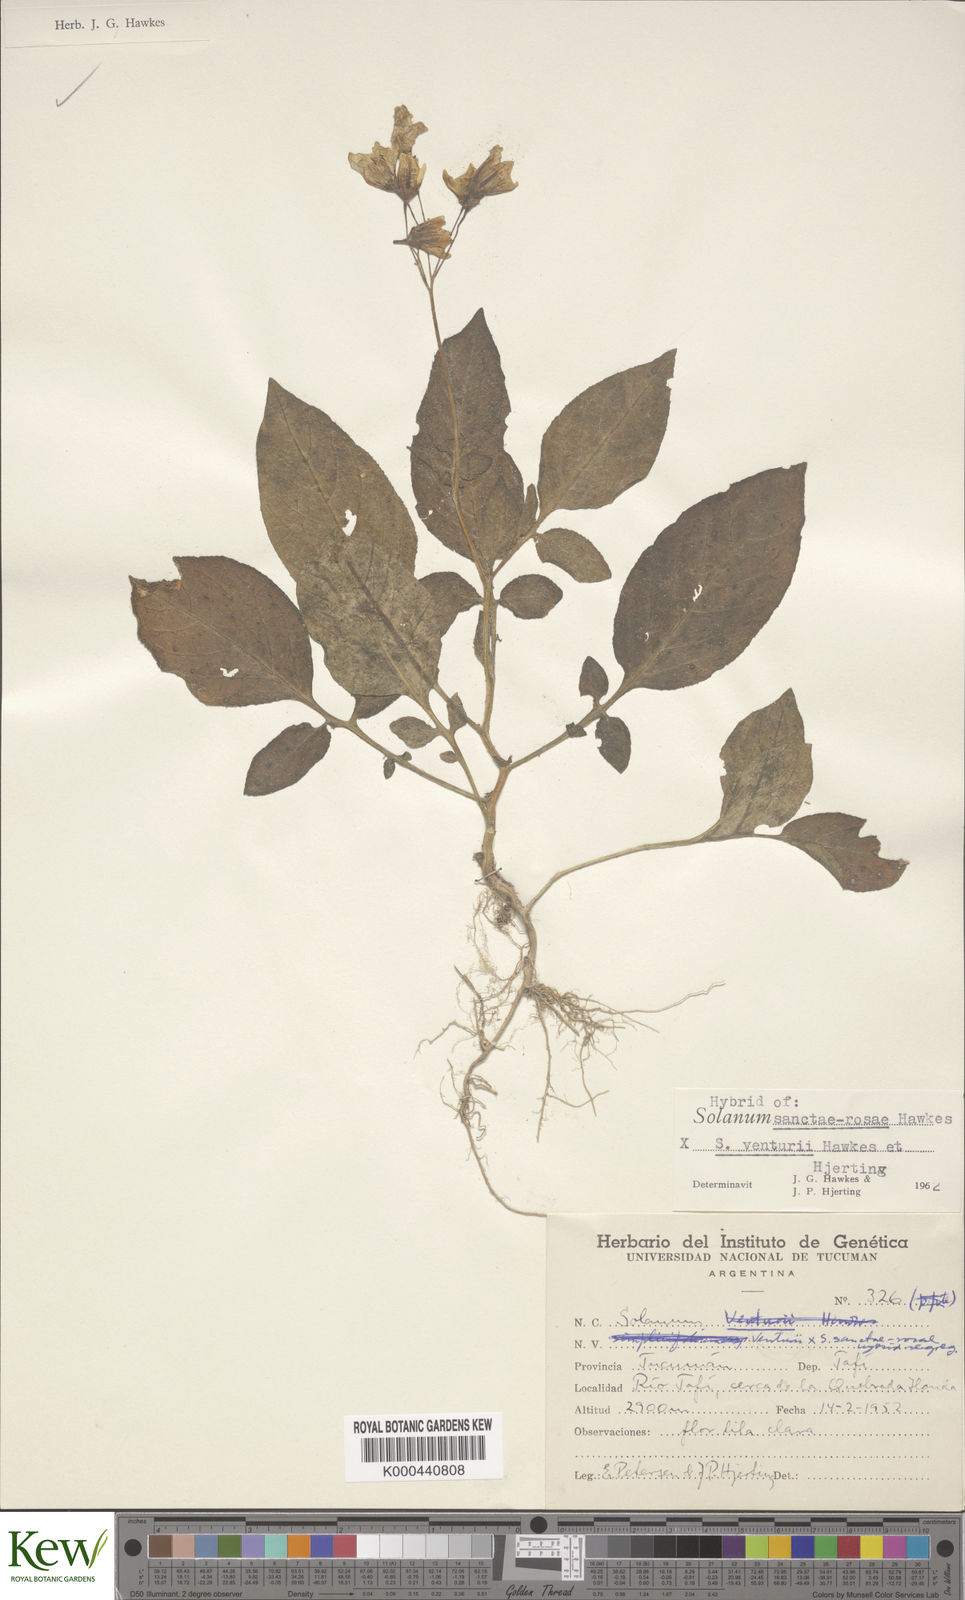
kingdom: Plantae
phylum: Tracheophyta
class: Magnoliopsida
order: Solanales
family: Solanaceae
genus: Solanum
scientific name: Solanum boliviense
